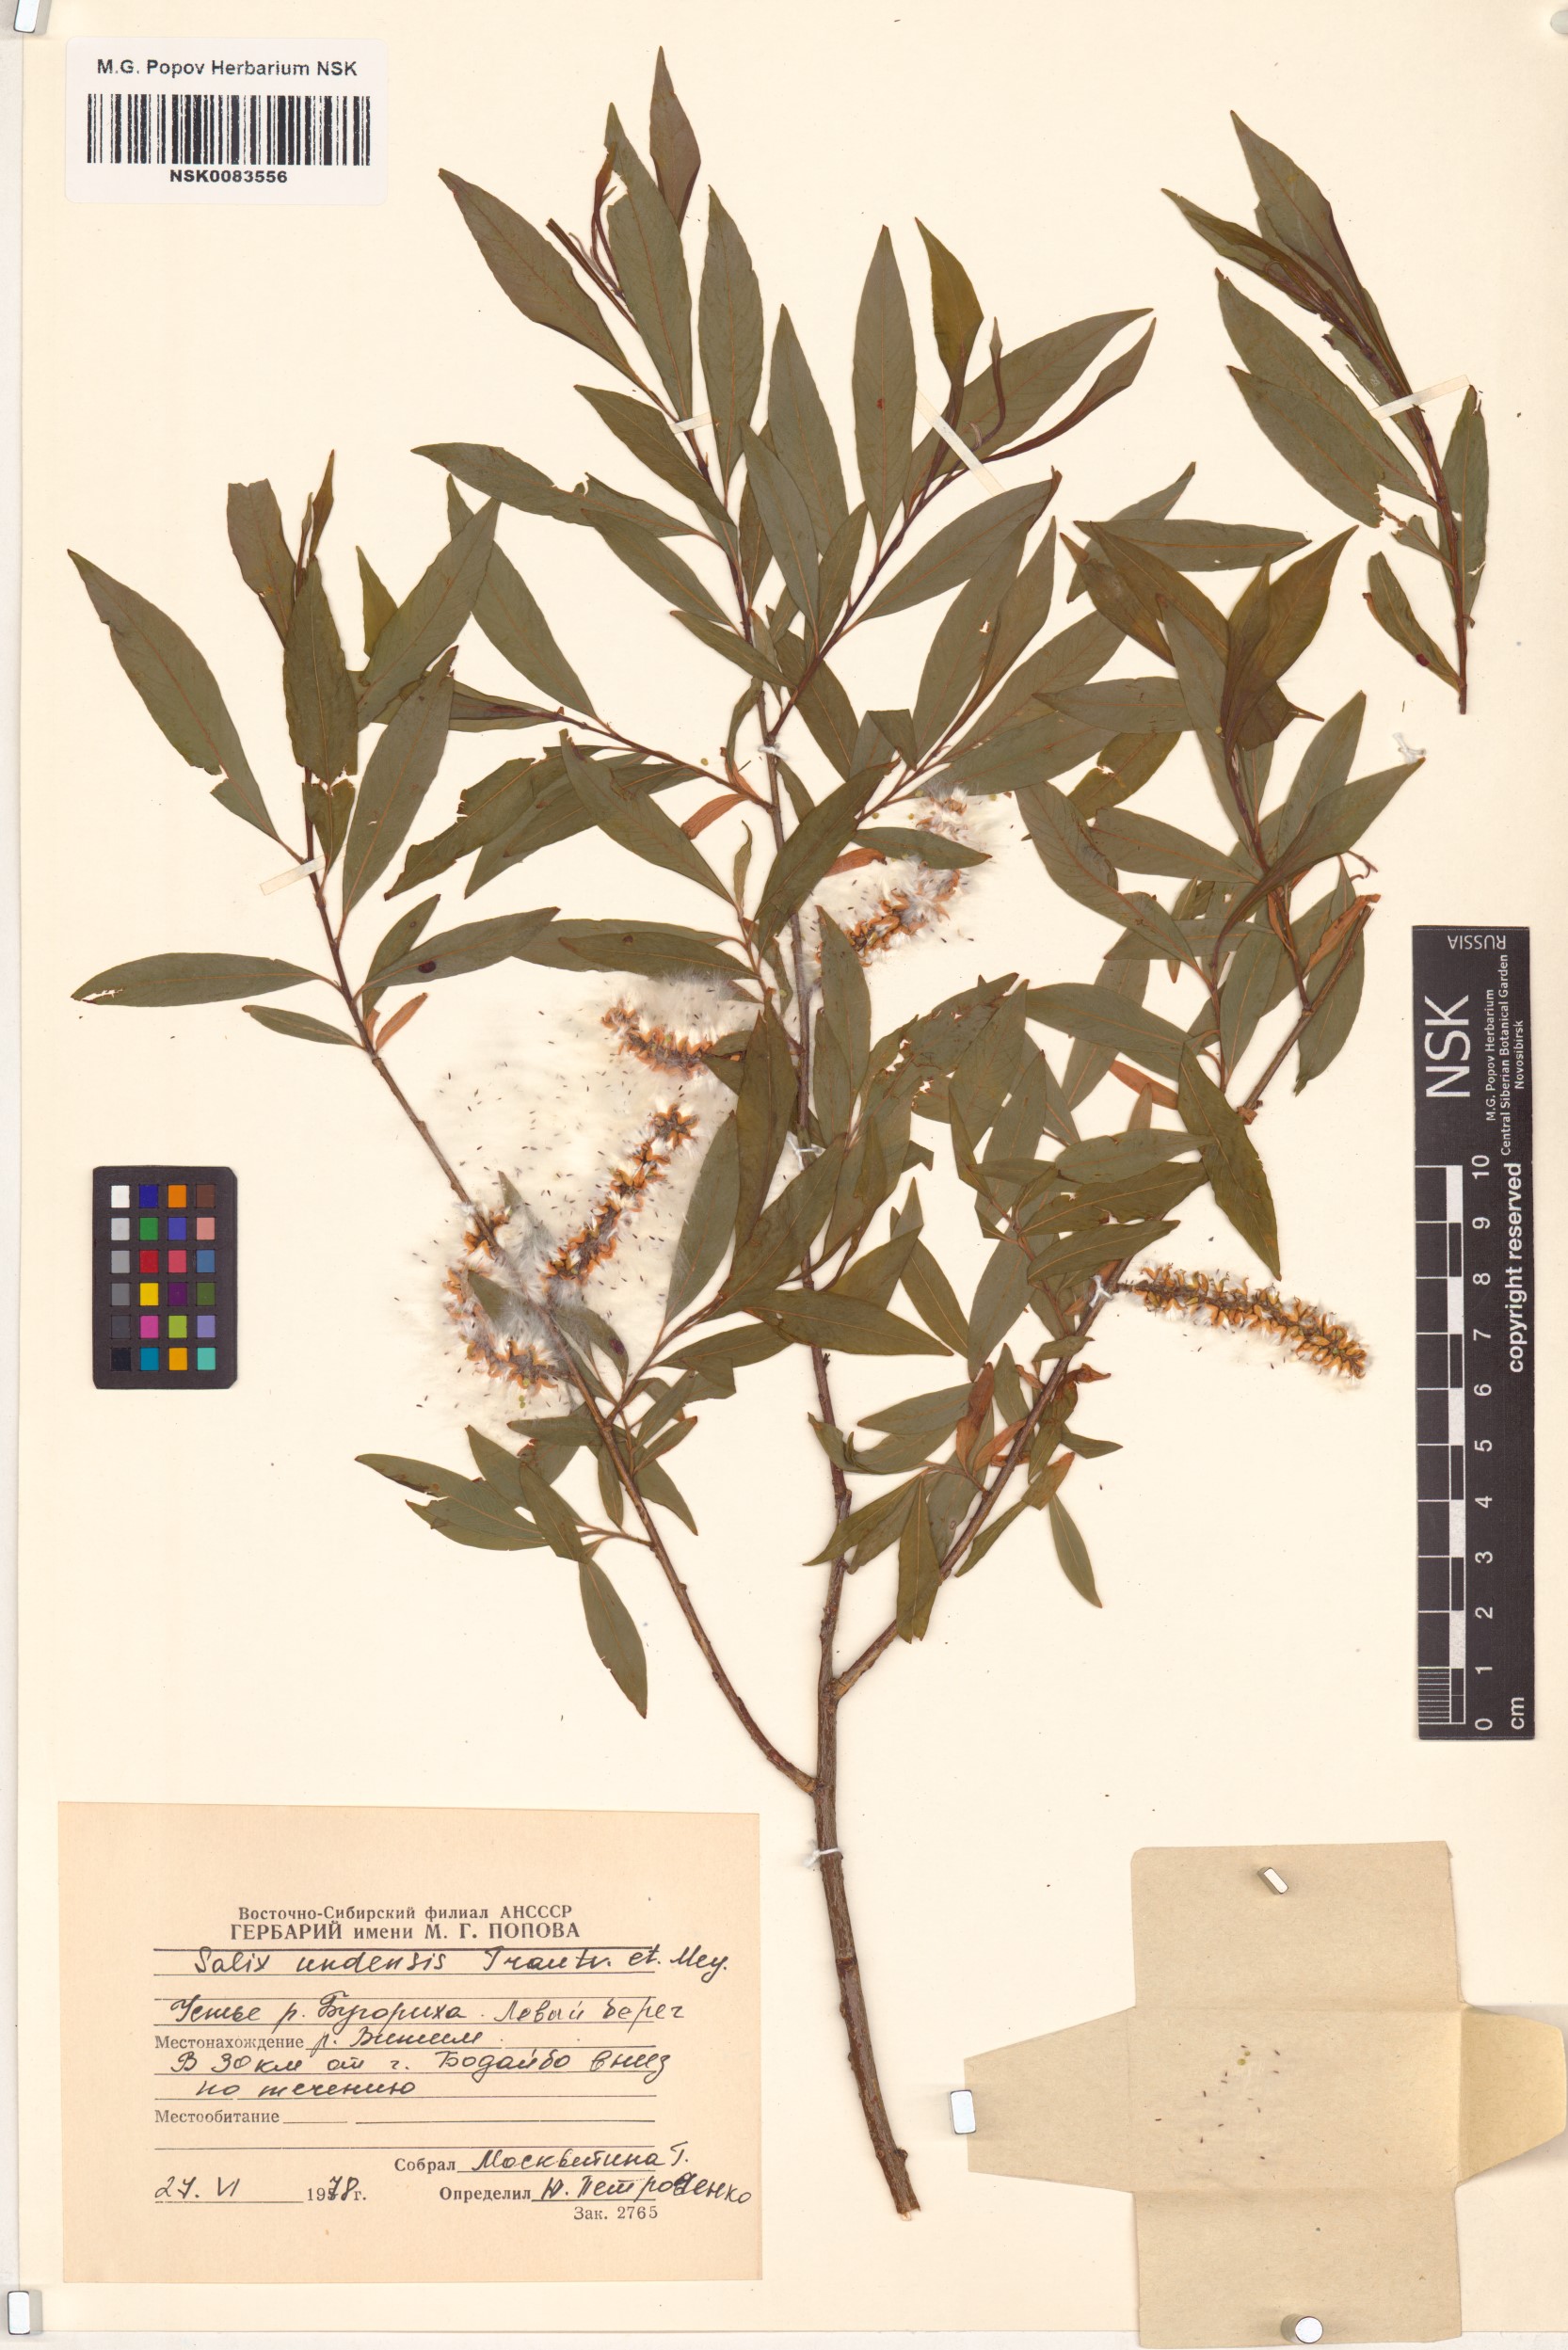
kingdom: Plantae
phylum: Tracheophyta
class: Magnoliopsida
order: Malpighiales
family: Salicaceae
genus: Salix
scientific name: Salix udensis
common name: Sachalin willow
